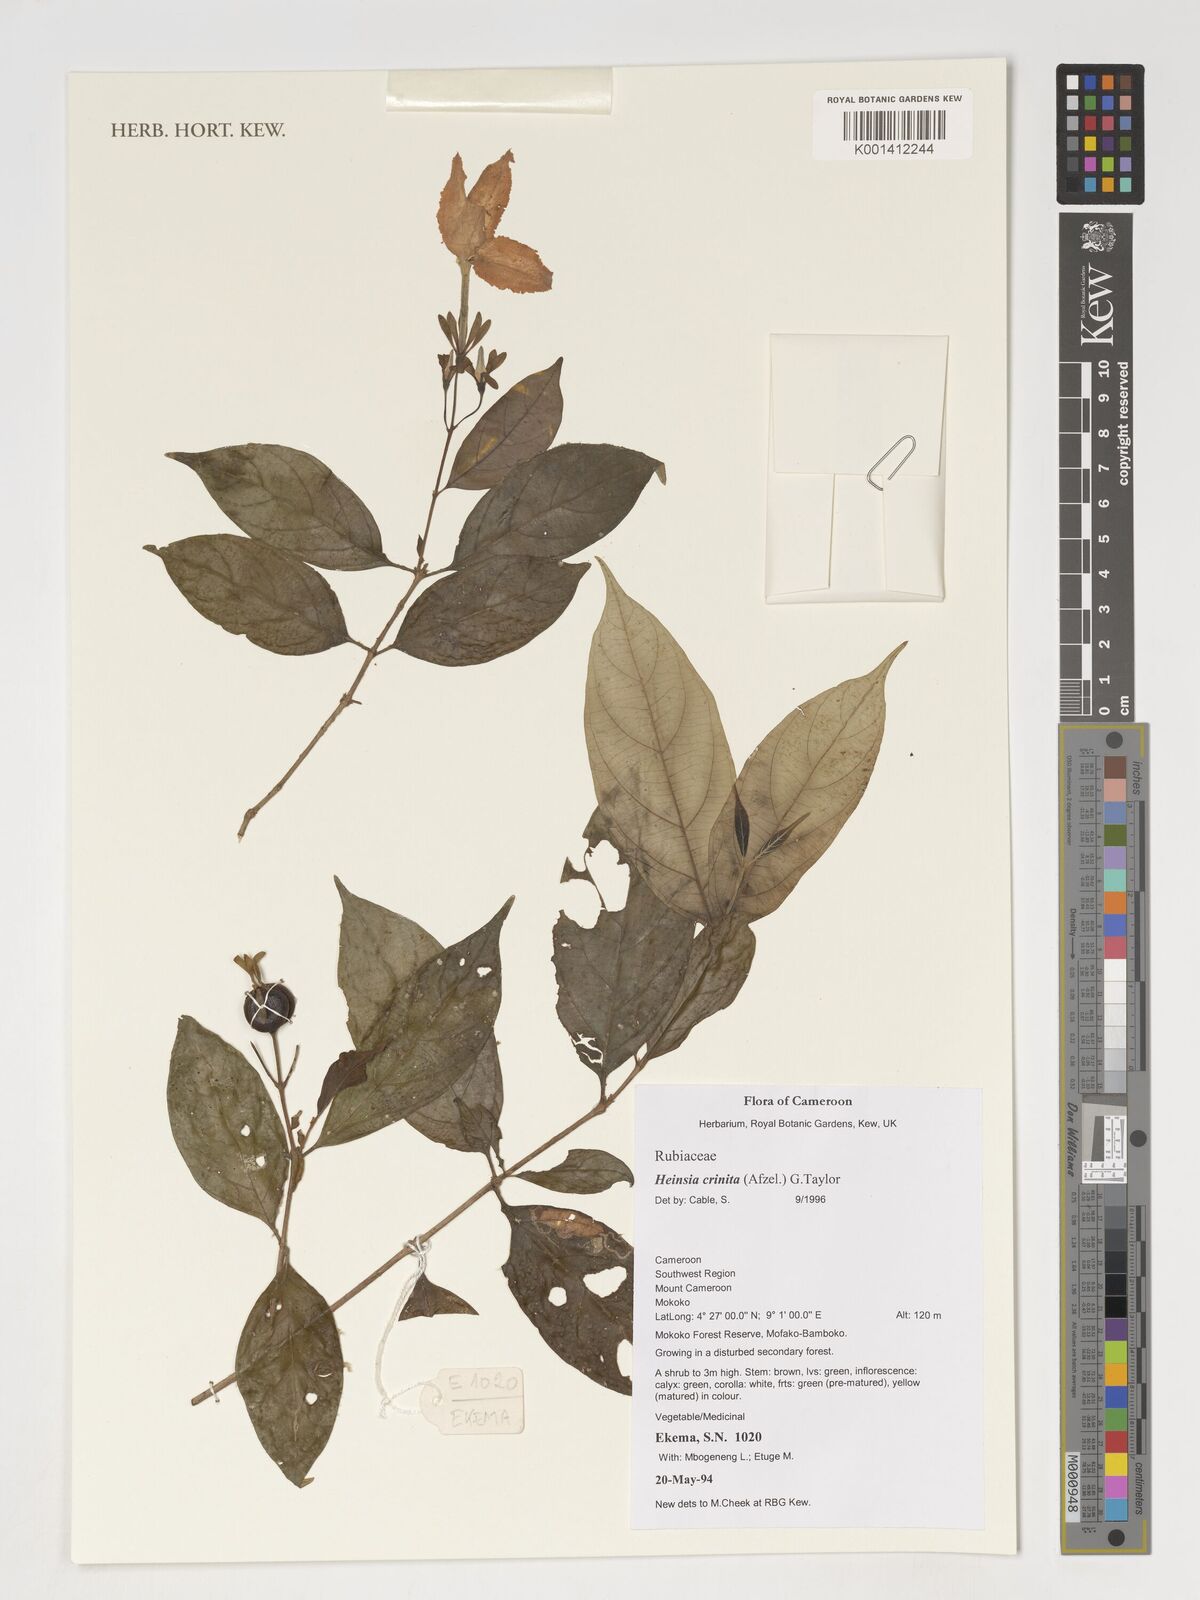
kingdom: Plantae
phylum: Tracheophyta
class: Magnoliopsida
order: Gentianales
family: Rubiaceae
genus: Heinsia
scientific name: Heinsia
